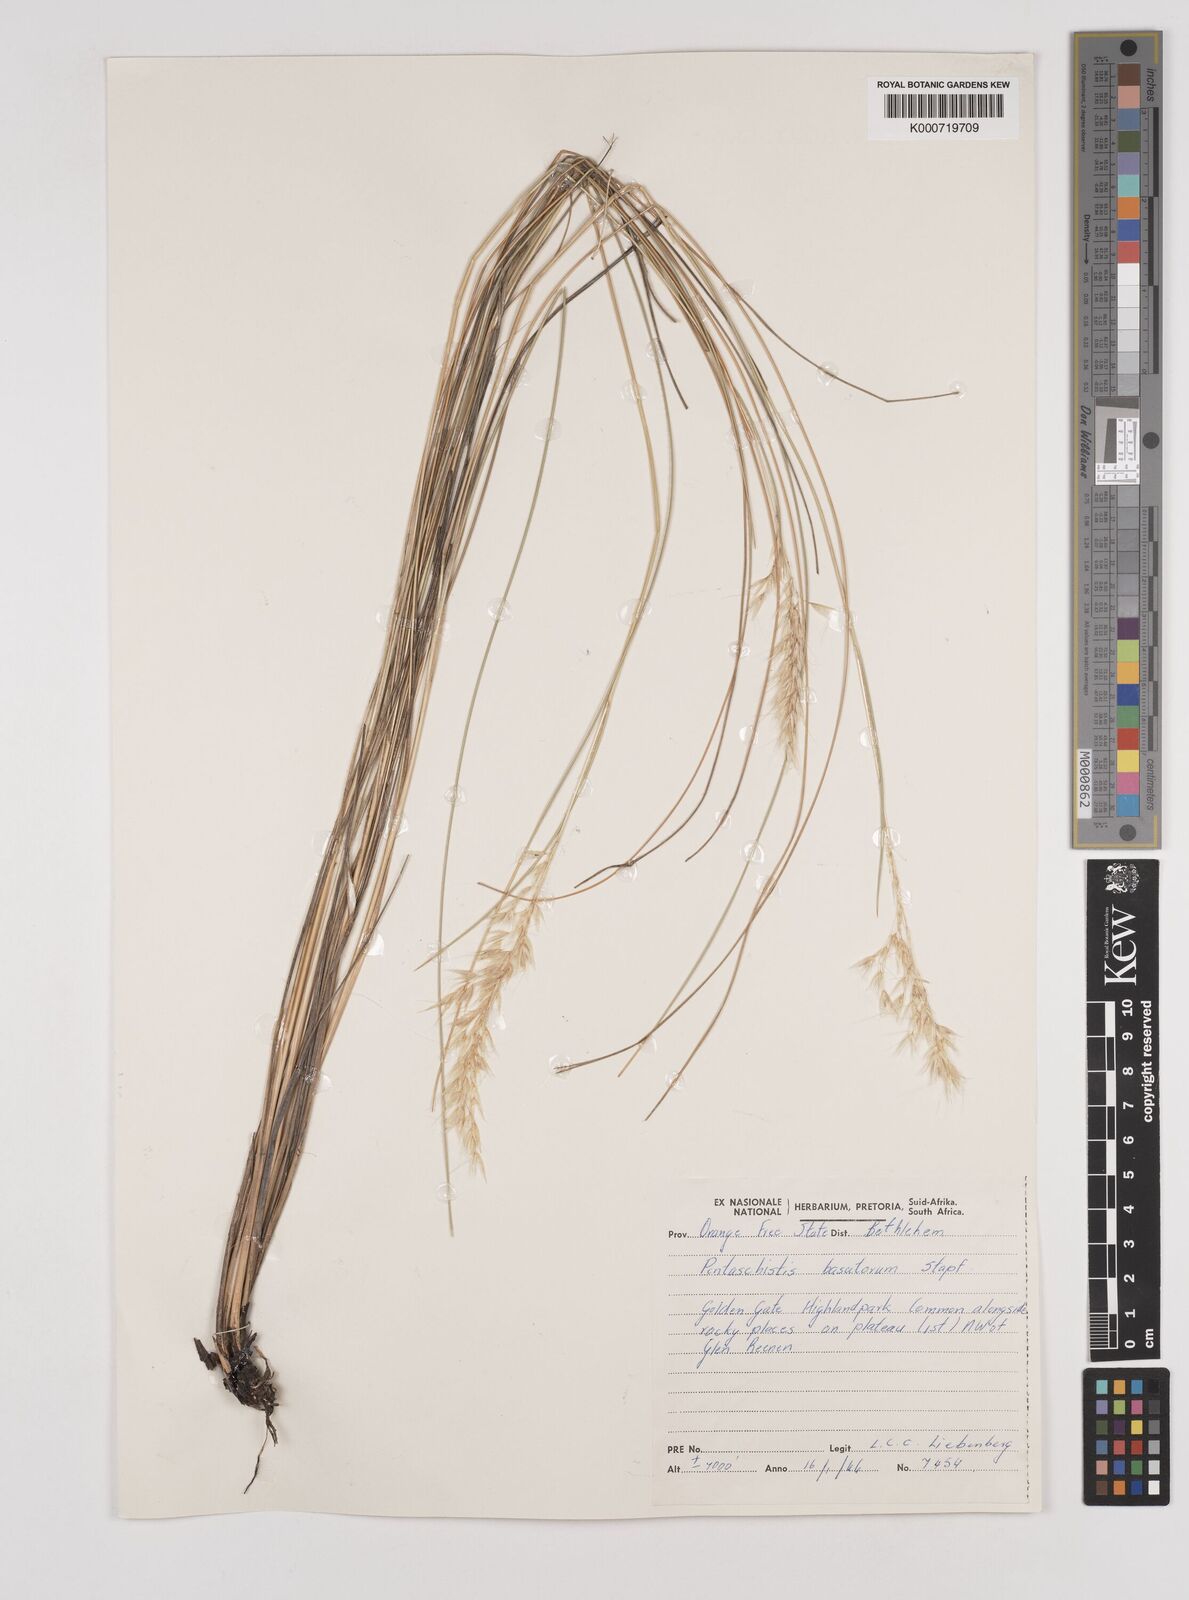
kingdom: Plantae
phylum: Tracheophyta
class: Liliopsida
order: Poales
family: Poaceae
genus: Pentameris
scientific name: Pentameris basutorum
